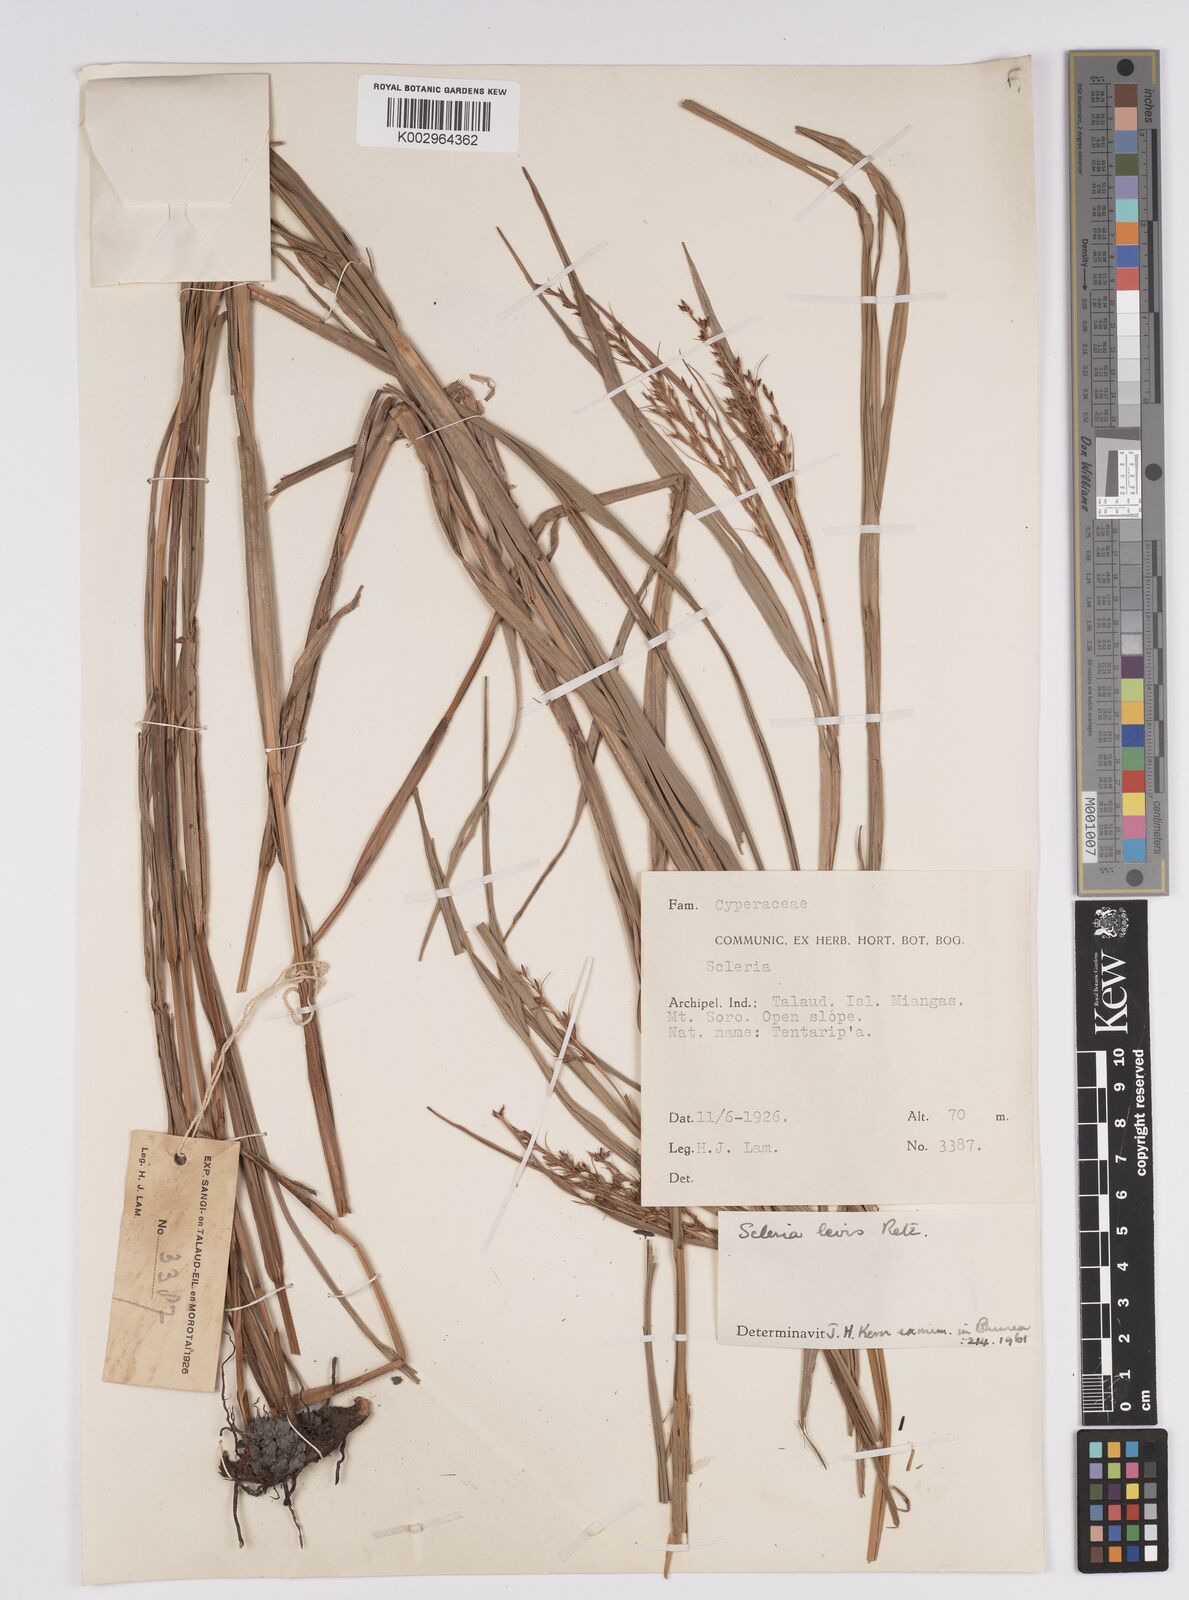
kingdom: Plantae
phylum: Tracheophyta
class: Liliopsida
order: Poales
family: Cyperaceae
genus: Scleria
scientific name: Scleria levis
